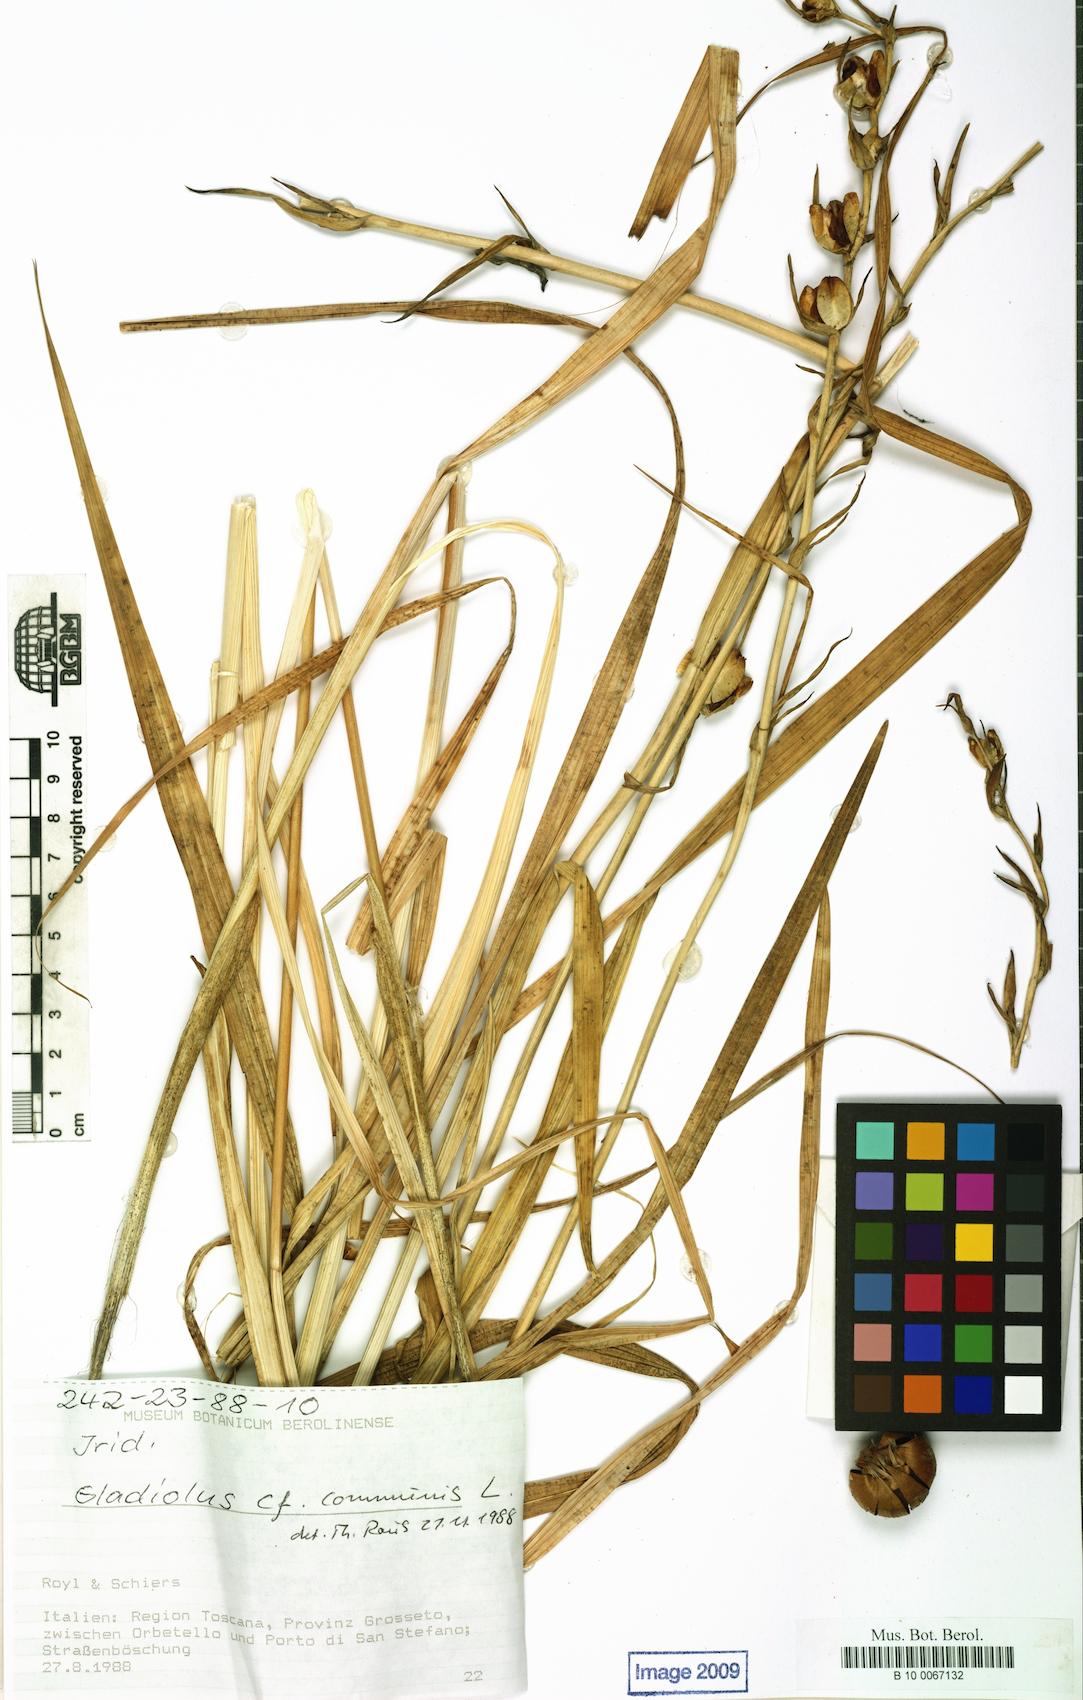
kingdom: Plantae
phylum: Tracheophyta
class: Liliopsida
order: Asparagales
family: Iridaceae
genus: Gladiolus
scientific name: Gladiolus byzantinus
